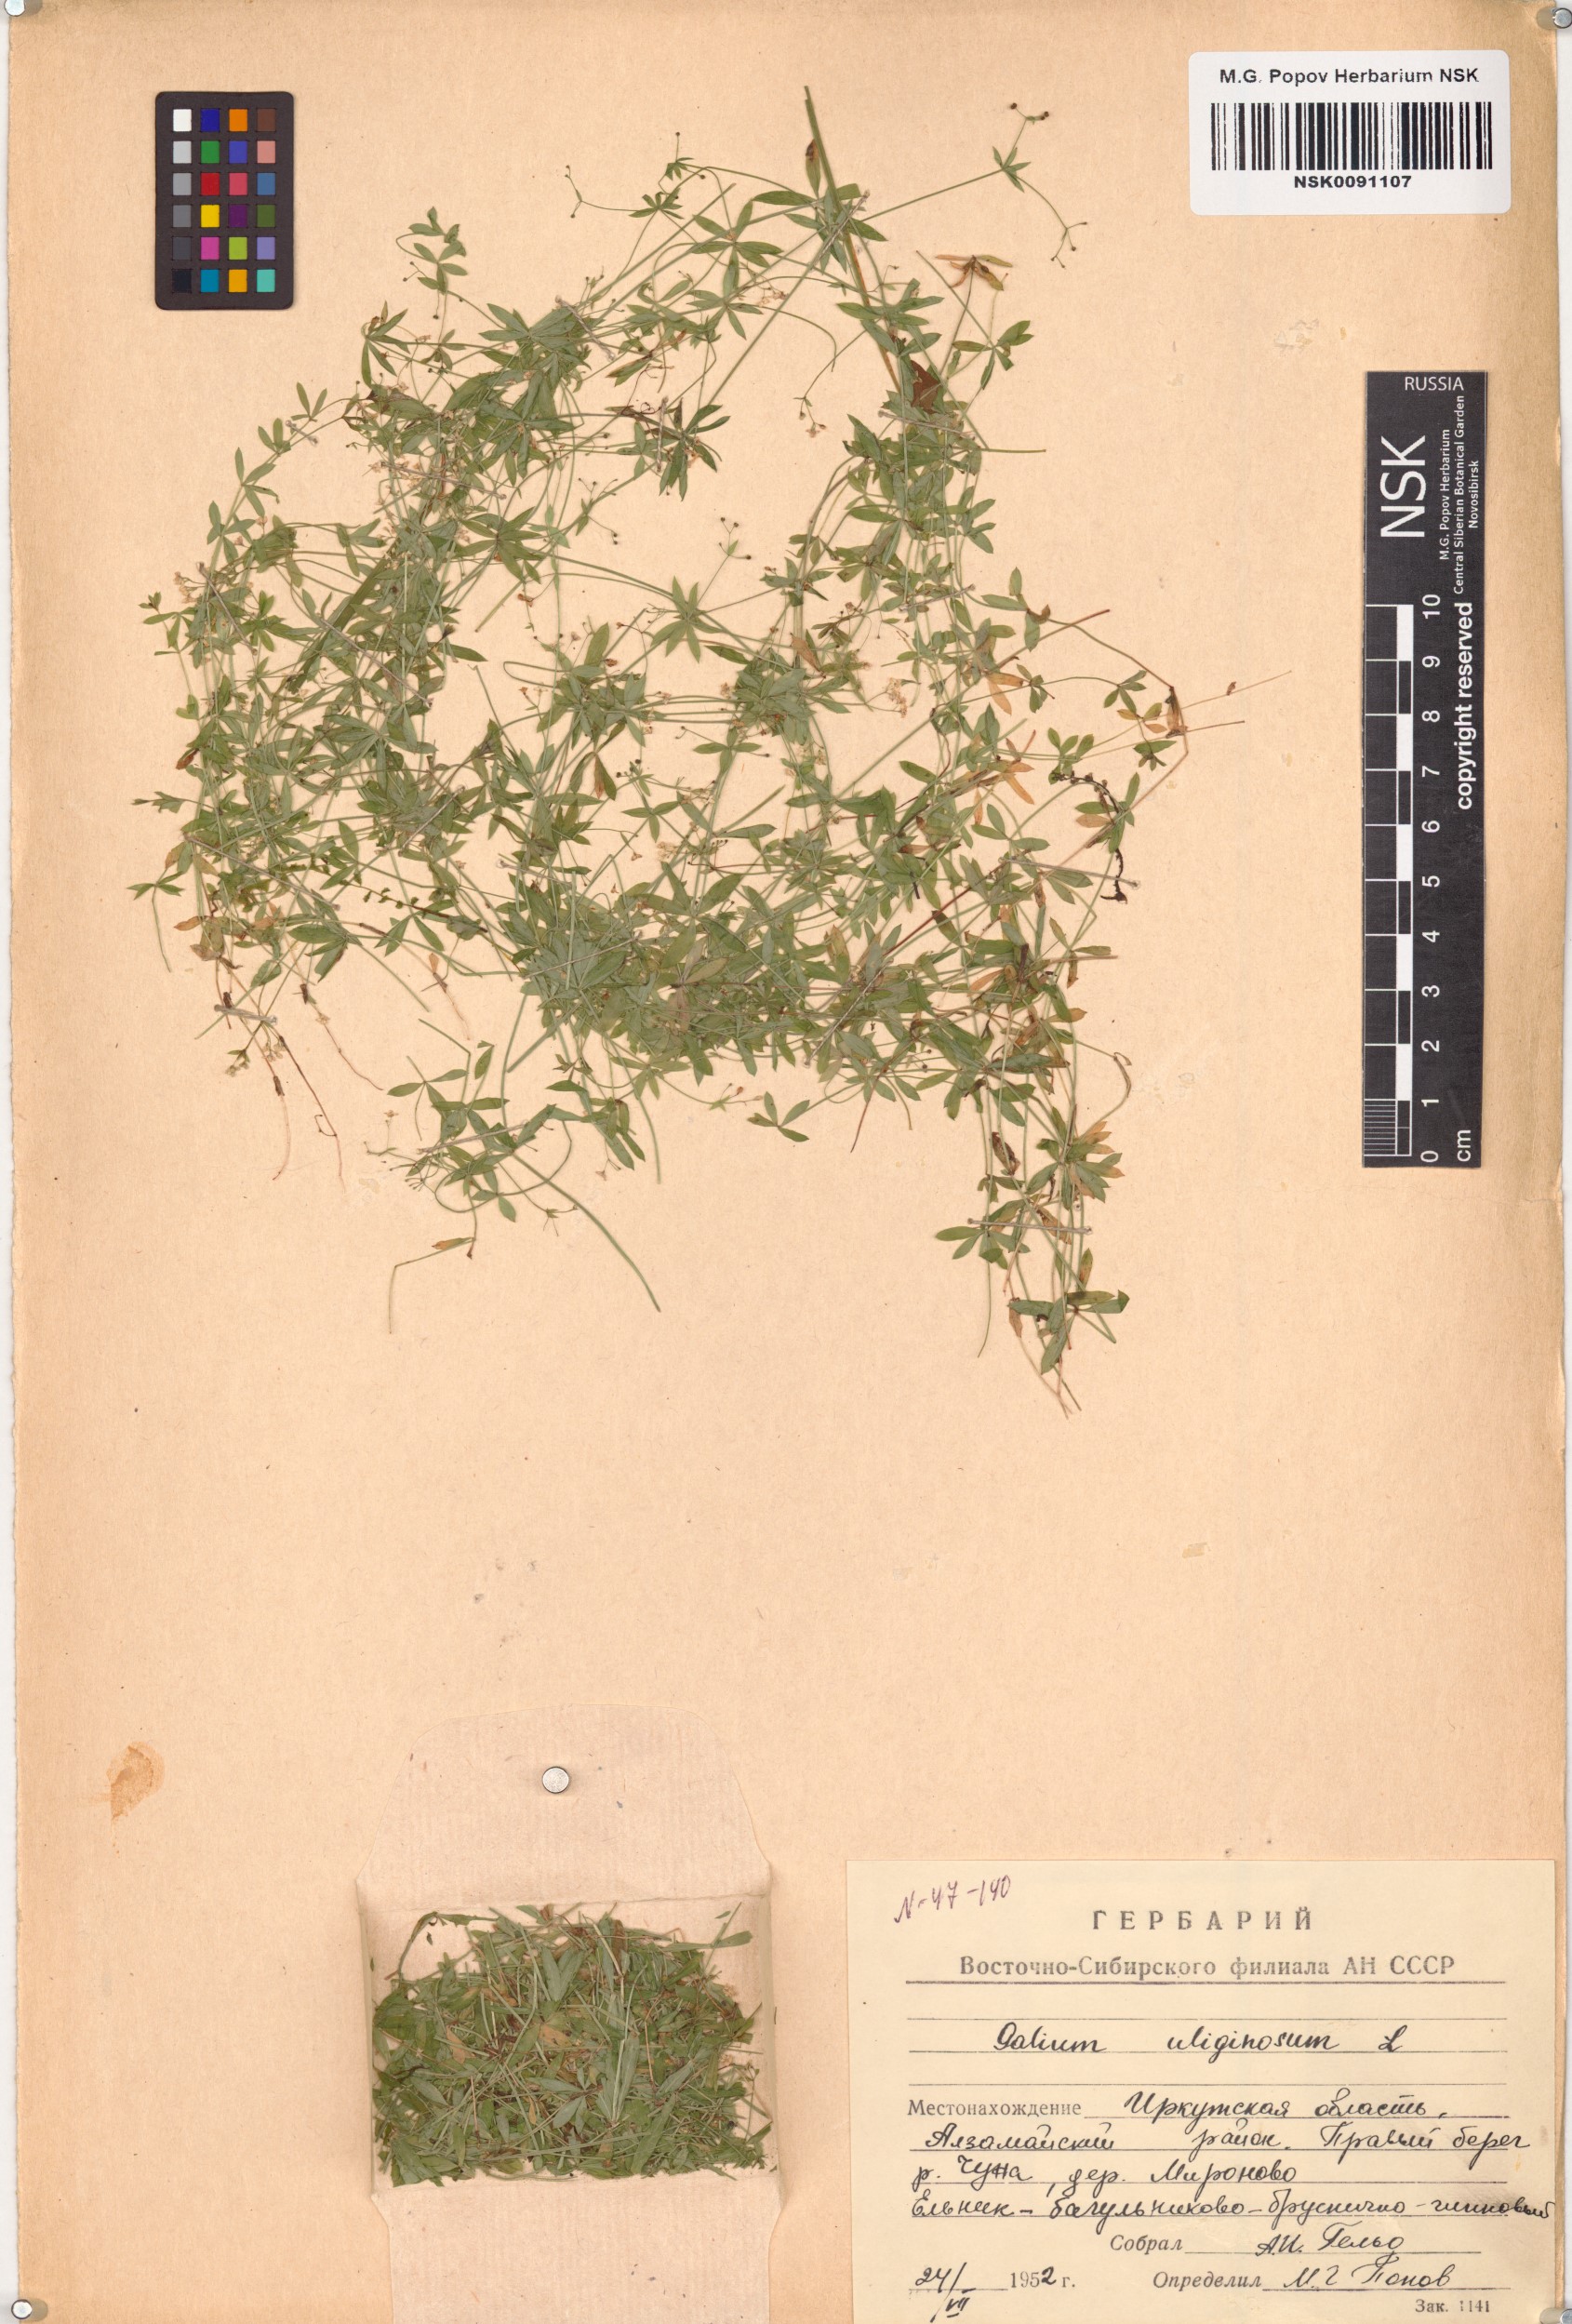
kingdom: Plantae
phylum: Tracheophyta
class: Magnoliopsida
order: Gentianales
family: Rubiaceae
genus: Galium
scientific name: Galium uliginosum
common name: Fen bedstraw
